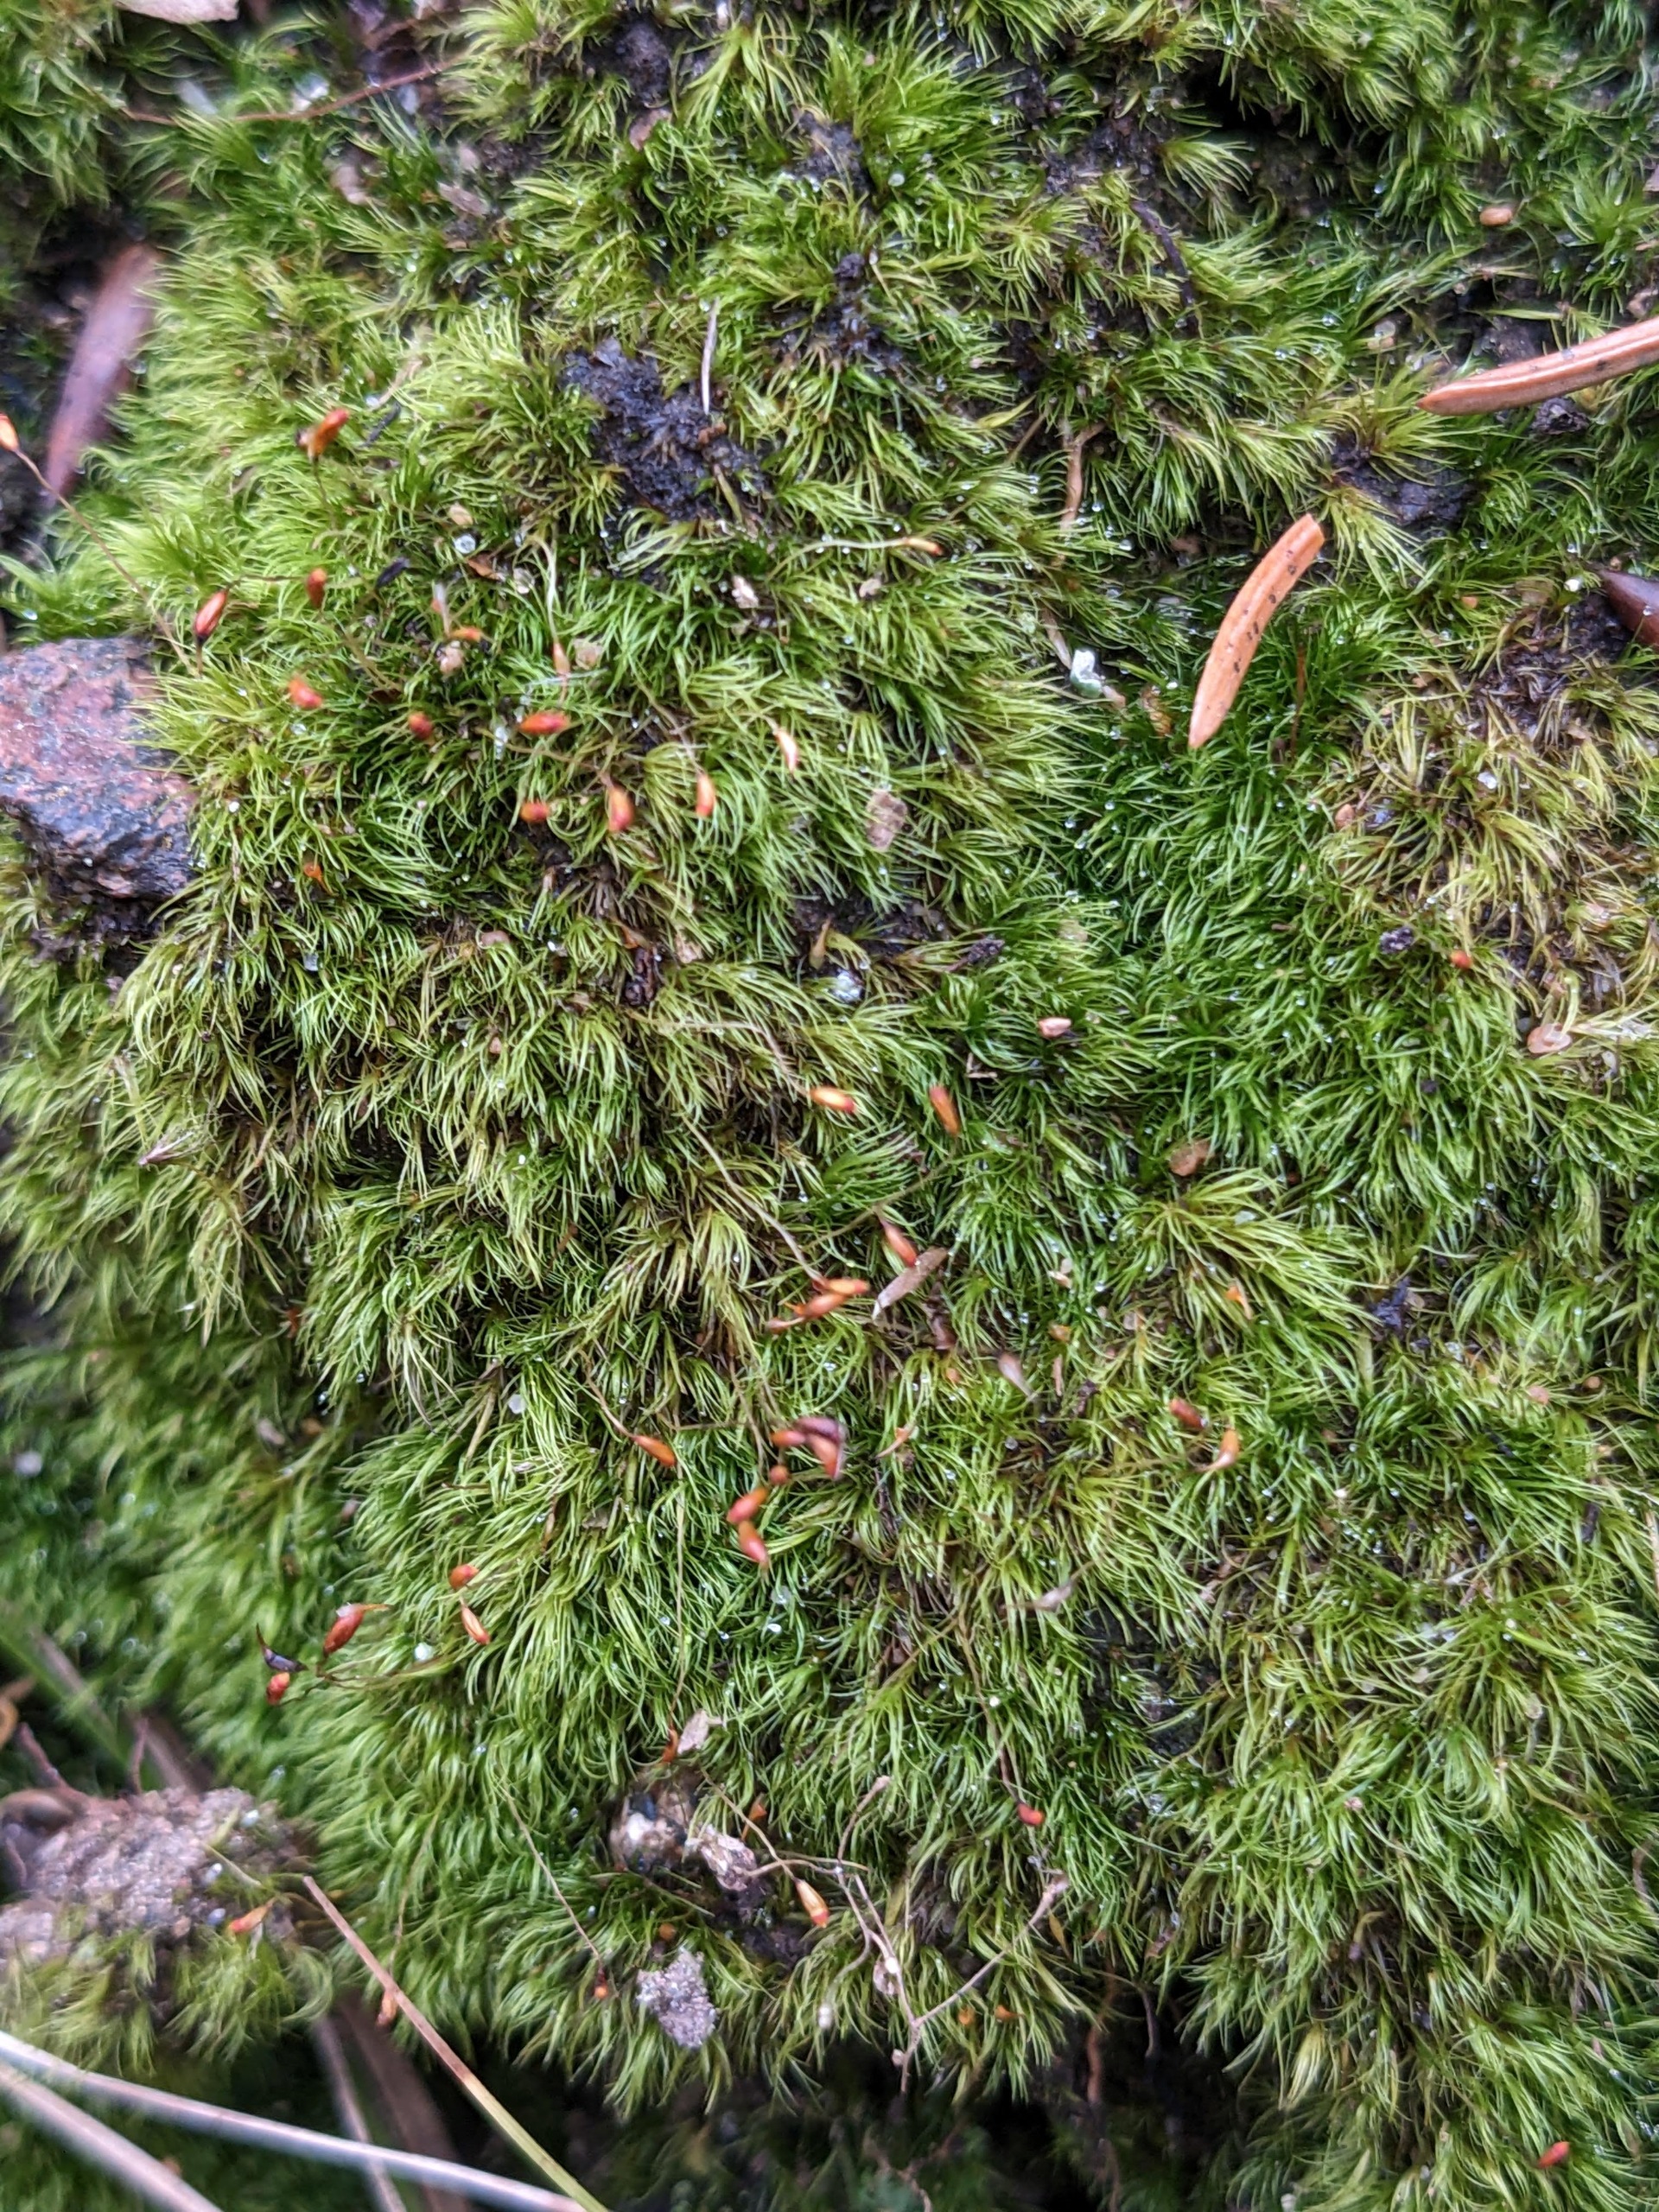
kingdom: Plantae
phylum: Bryophyta
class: Bryopsida
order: Dicranales
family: Dicranellaceae
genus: Dicranella
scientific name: Dicranella heteromalla
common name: Almindelig fløjlsmos
